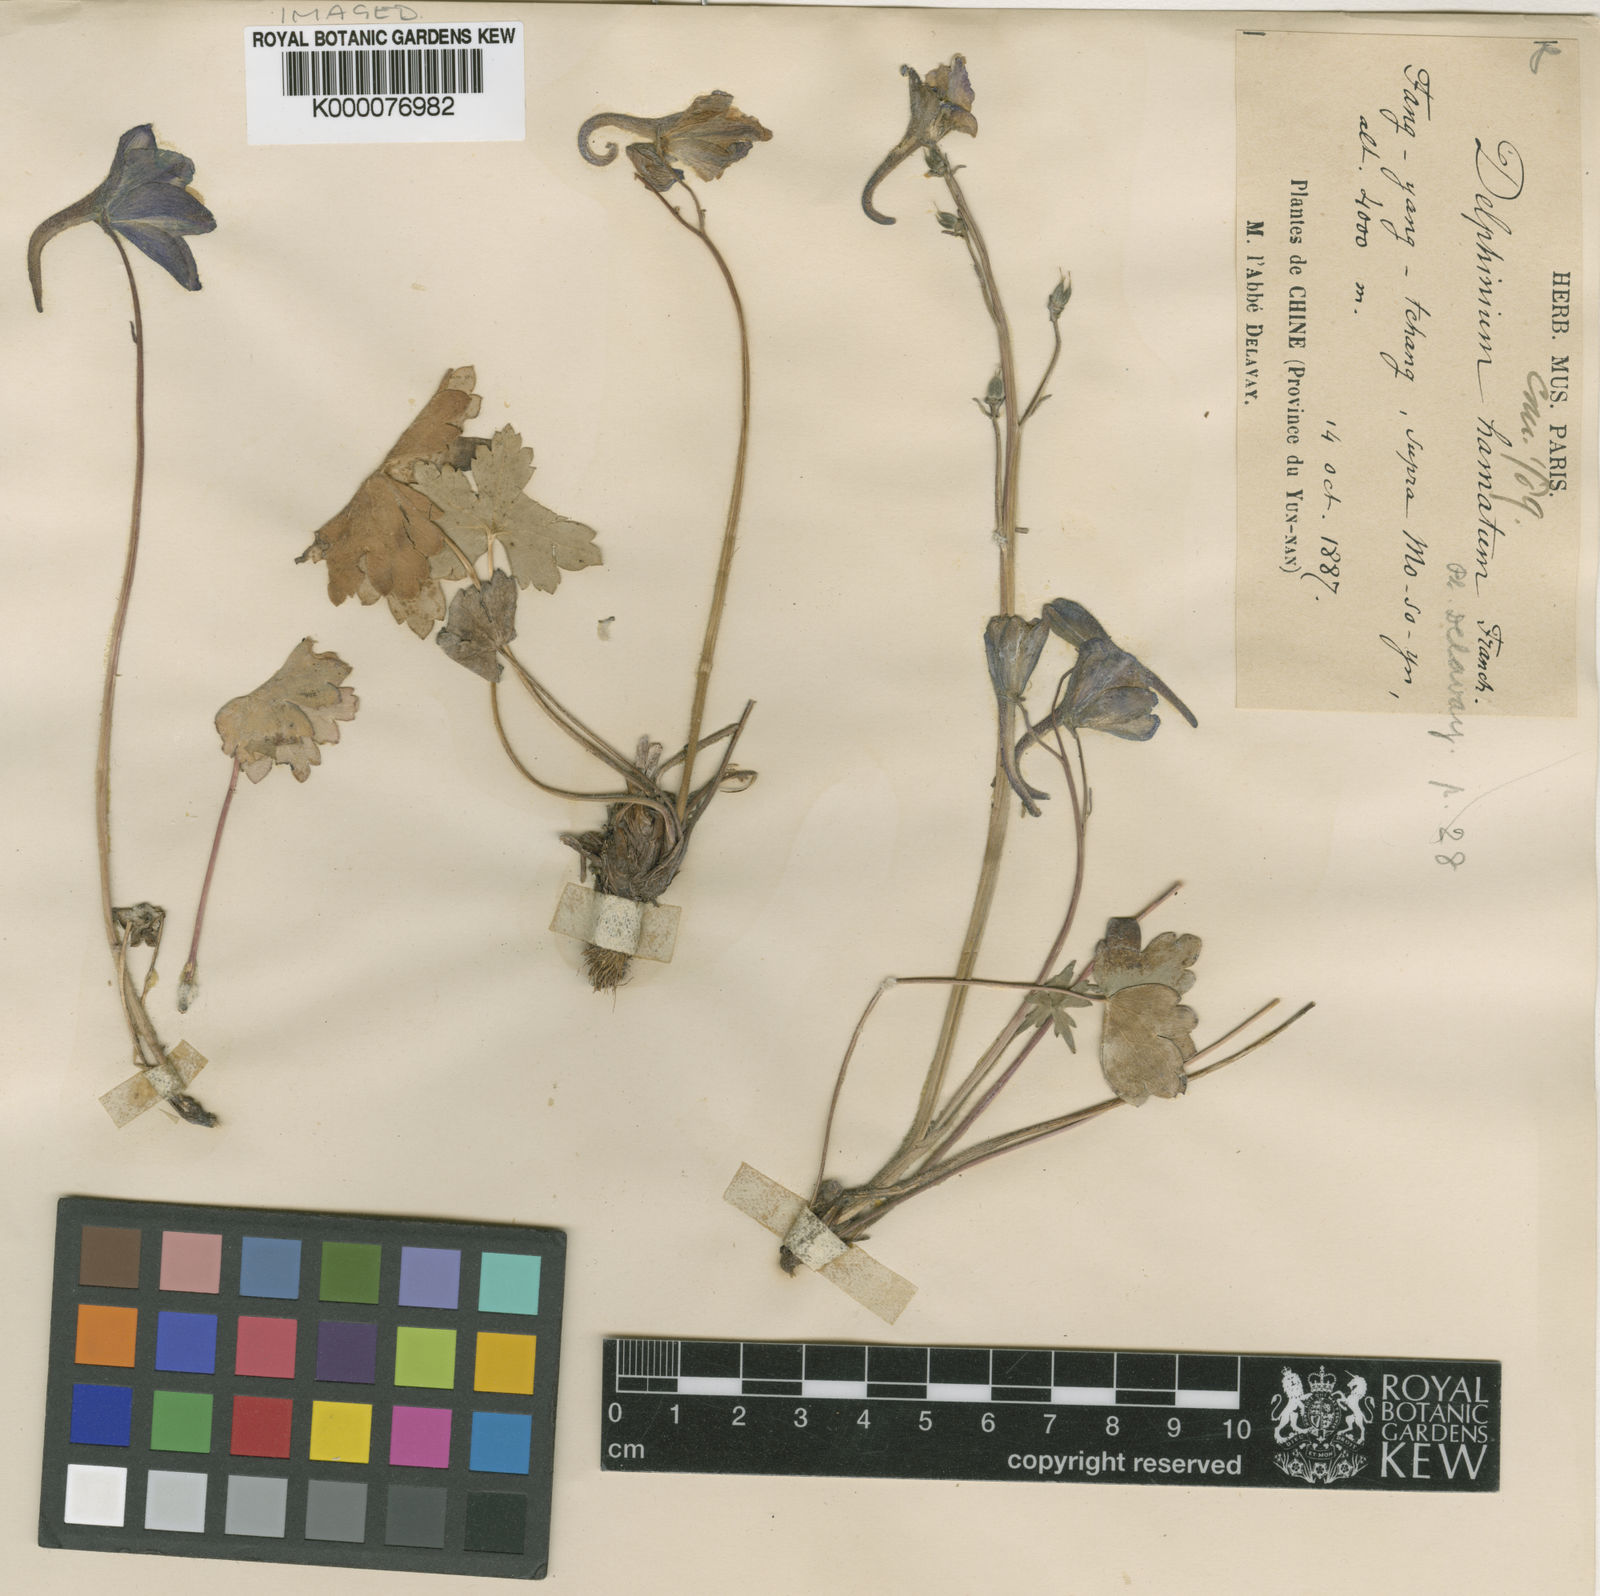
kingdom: Plantae
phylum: Tracheophyta
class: Magnoliopsida
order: Ranunculales
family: Ranunculaceae
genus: Delphinium
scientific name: Delphinium hamatum
